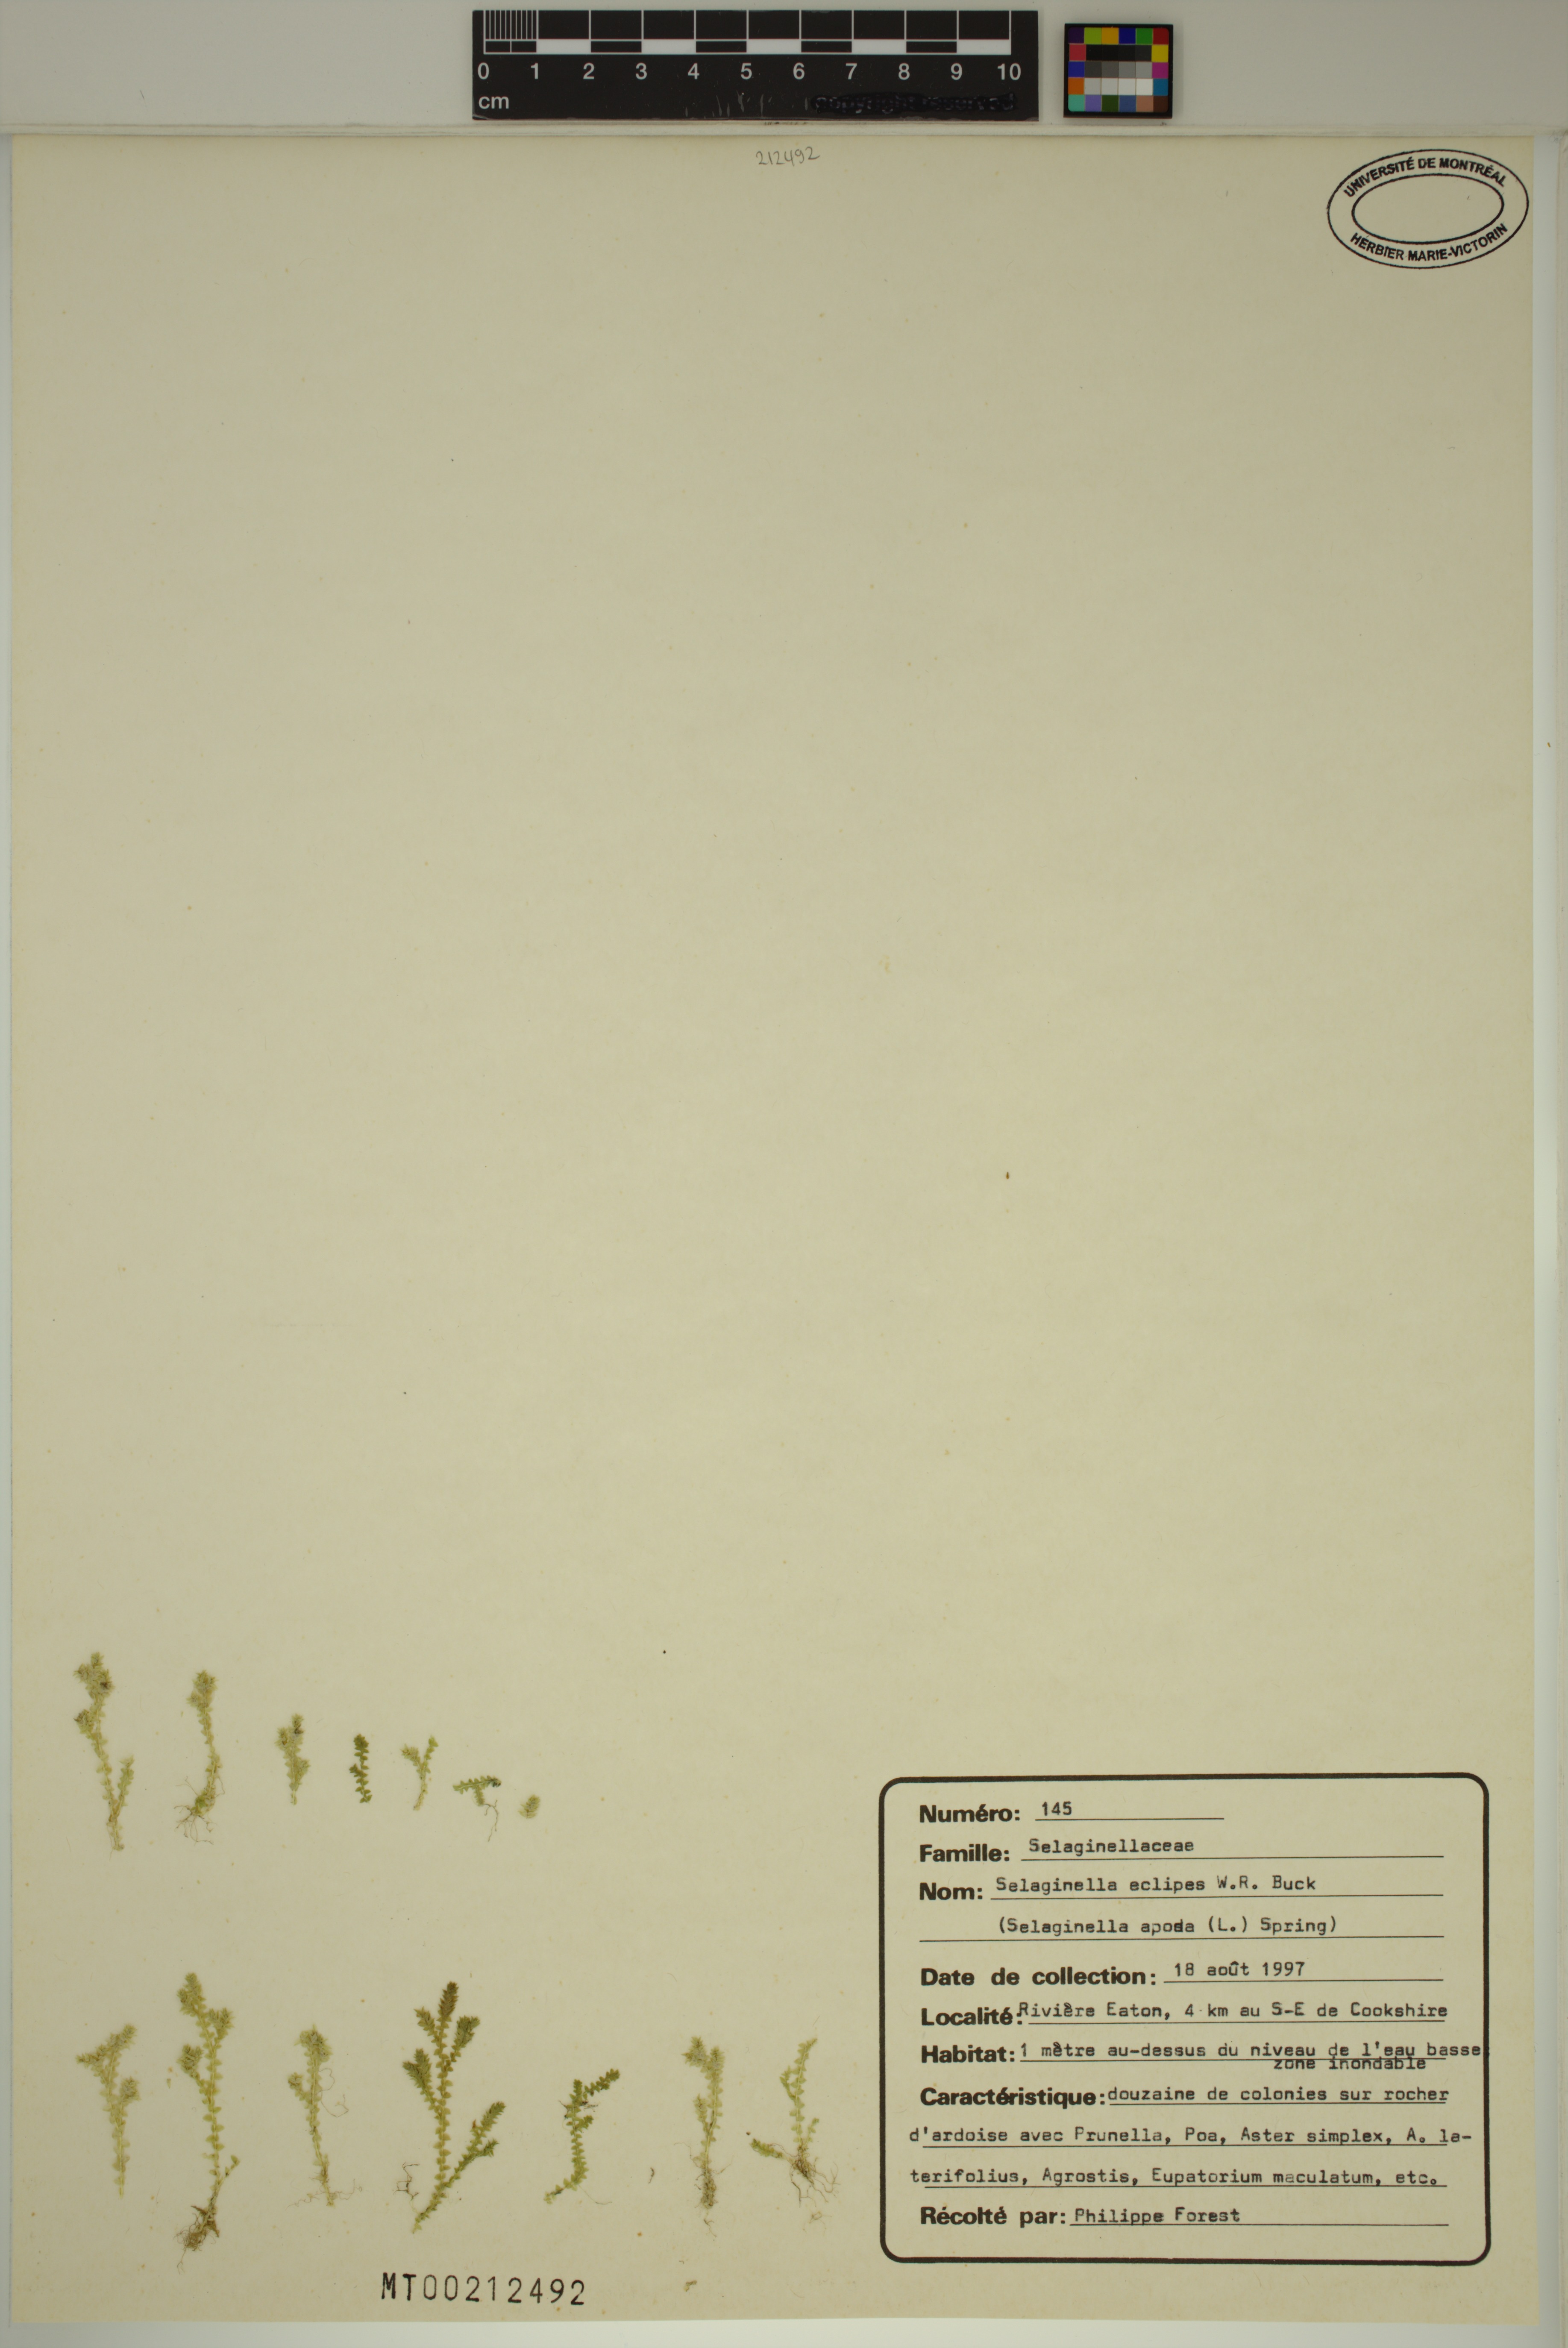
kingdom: Plantae
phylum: Tracheophyta
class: Lycopodiopsida
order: Selaginellales
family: Selaginellaceae
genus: Selaginella
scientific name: Selaginella eclipes
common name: Buck's meadow spikemoss
